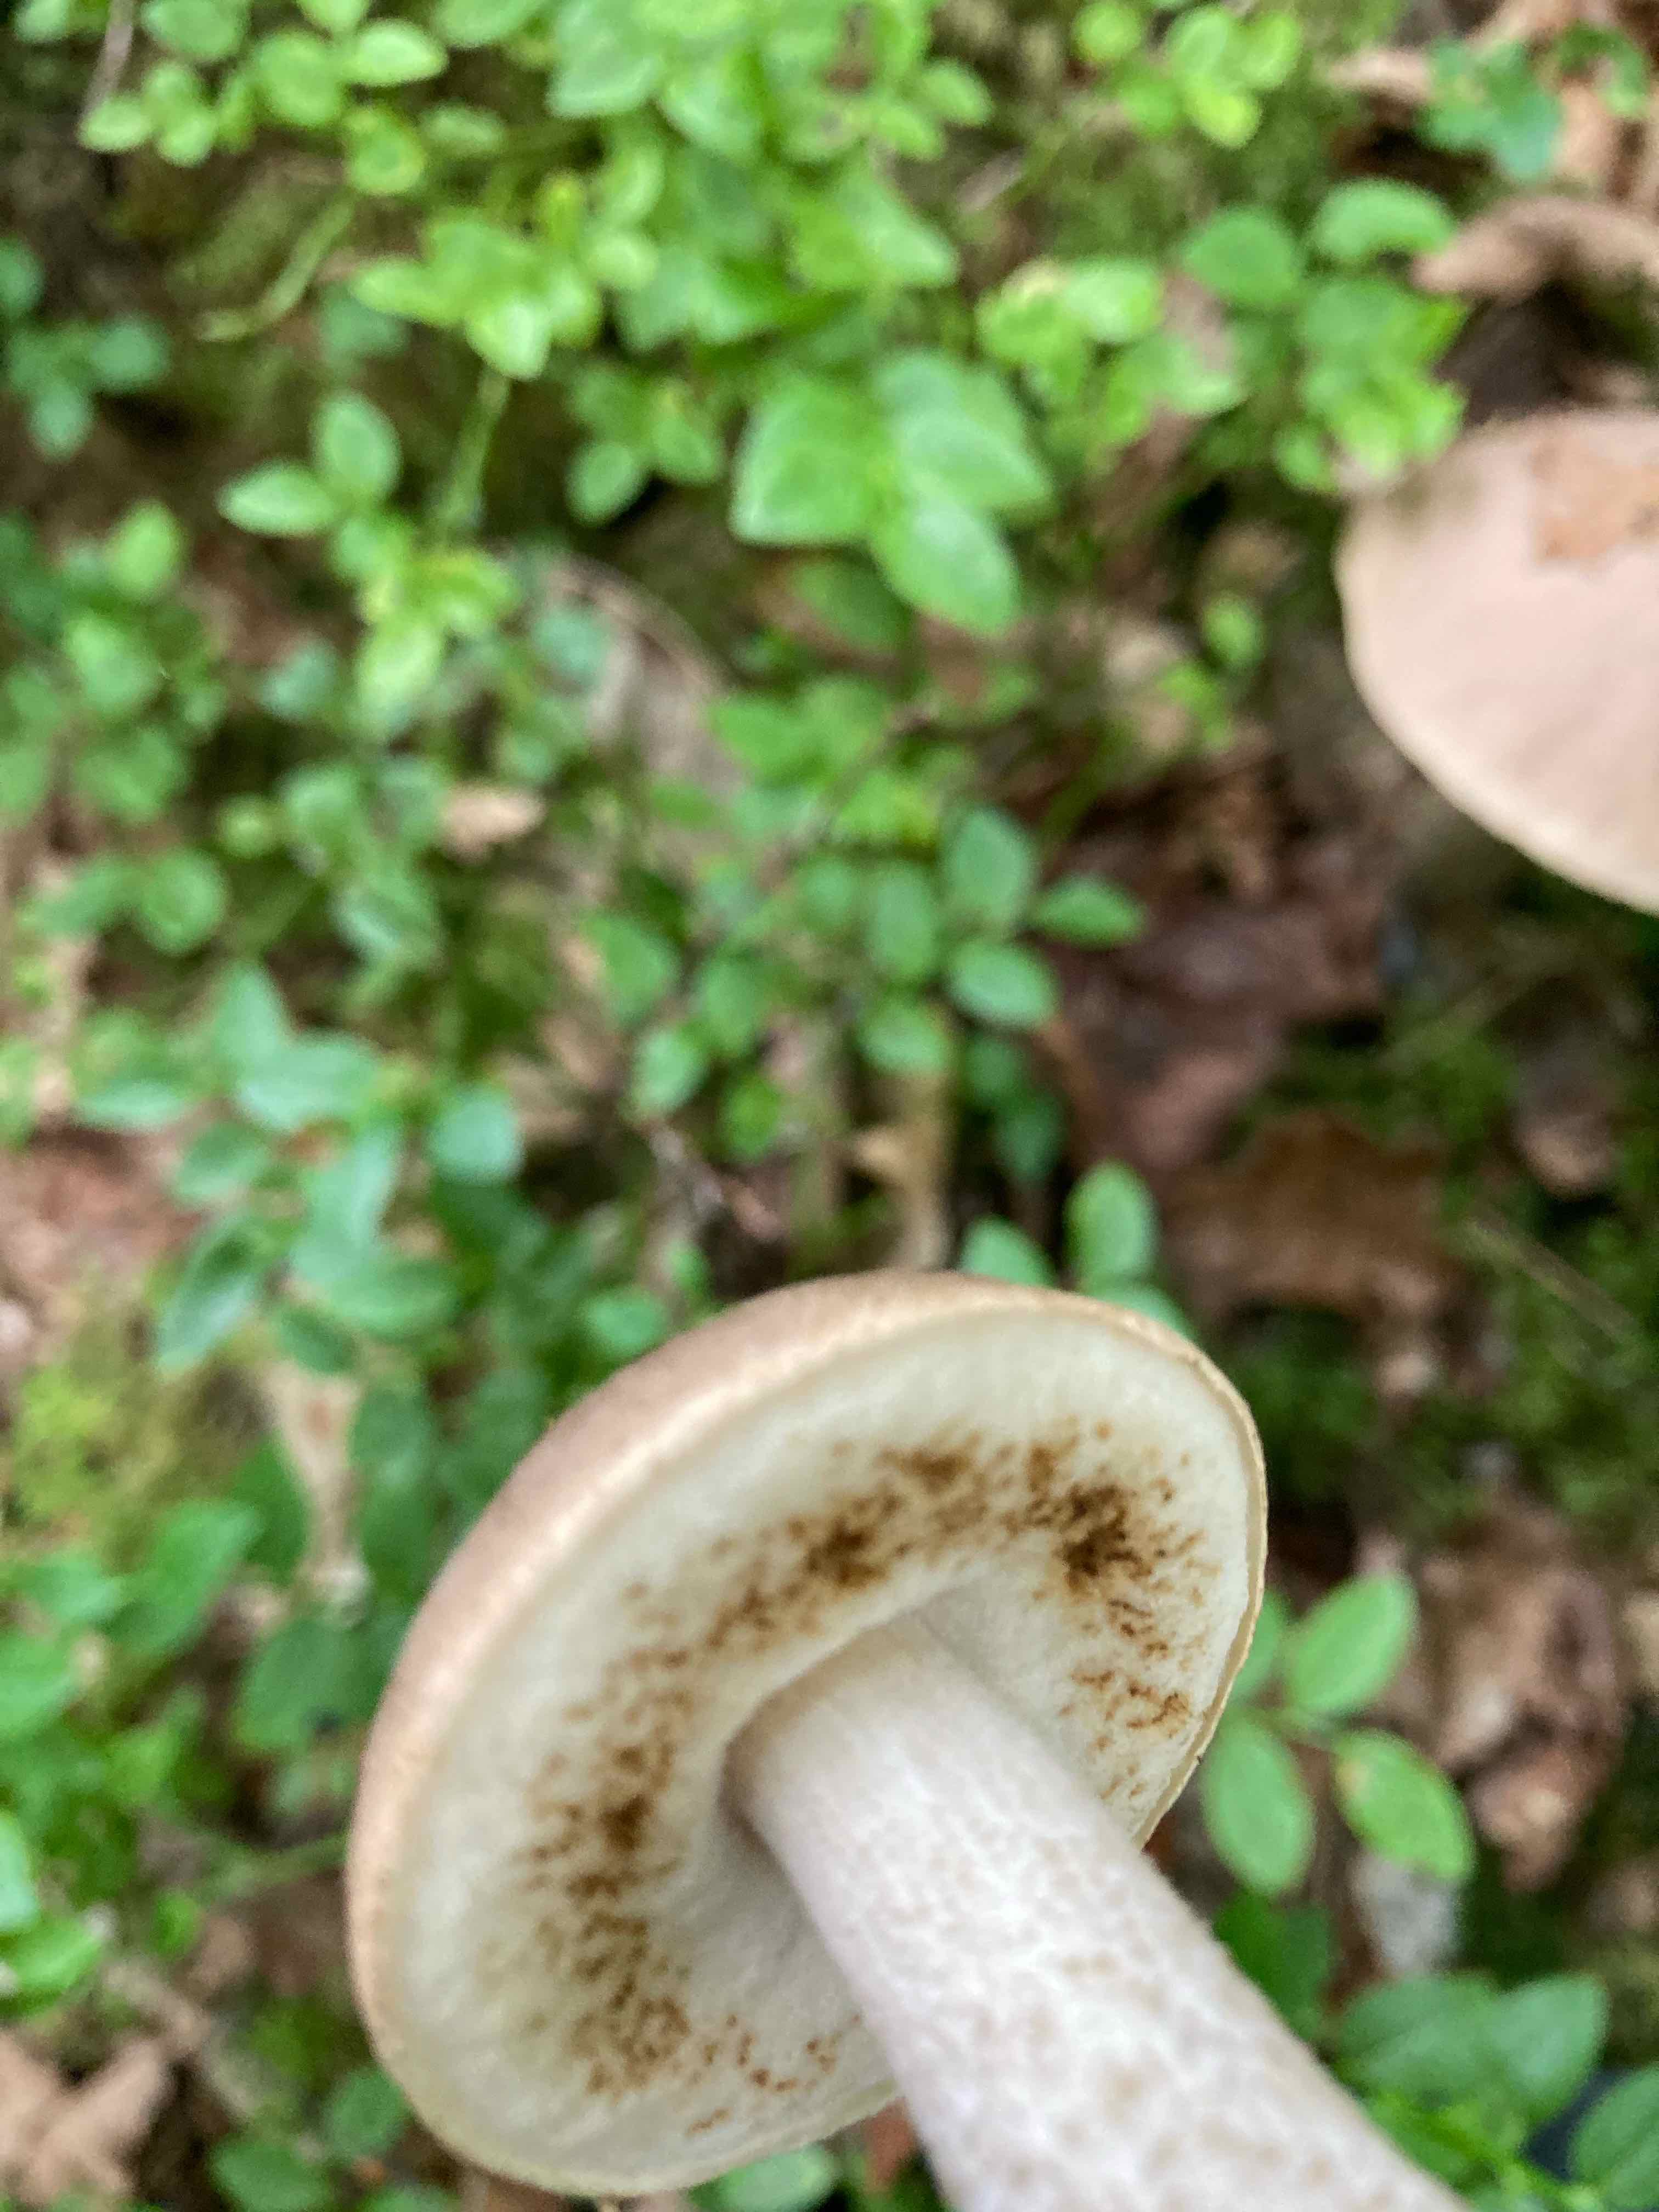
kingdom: Fungi
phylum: Basidiomycota
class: Agaricomycetes
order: Boletales
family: Boletaceae
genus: Leccinum
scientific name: Leccinum
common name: skælrørhat
